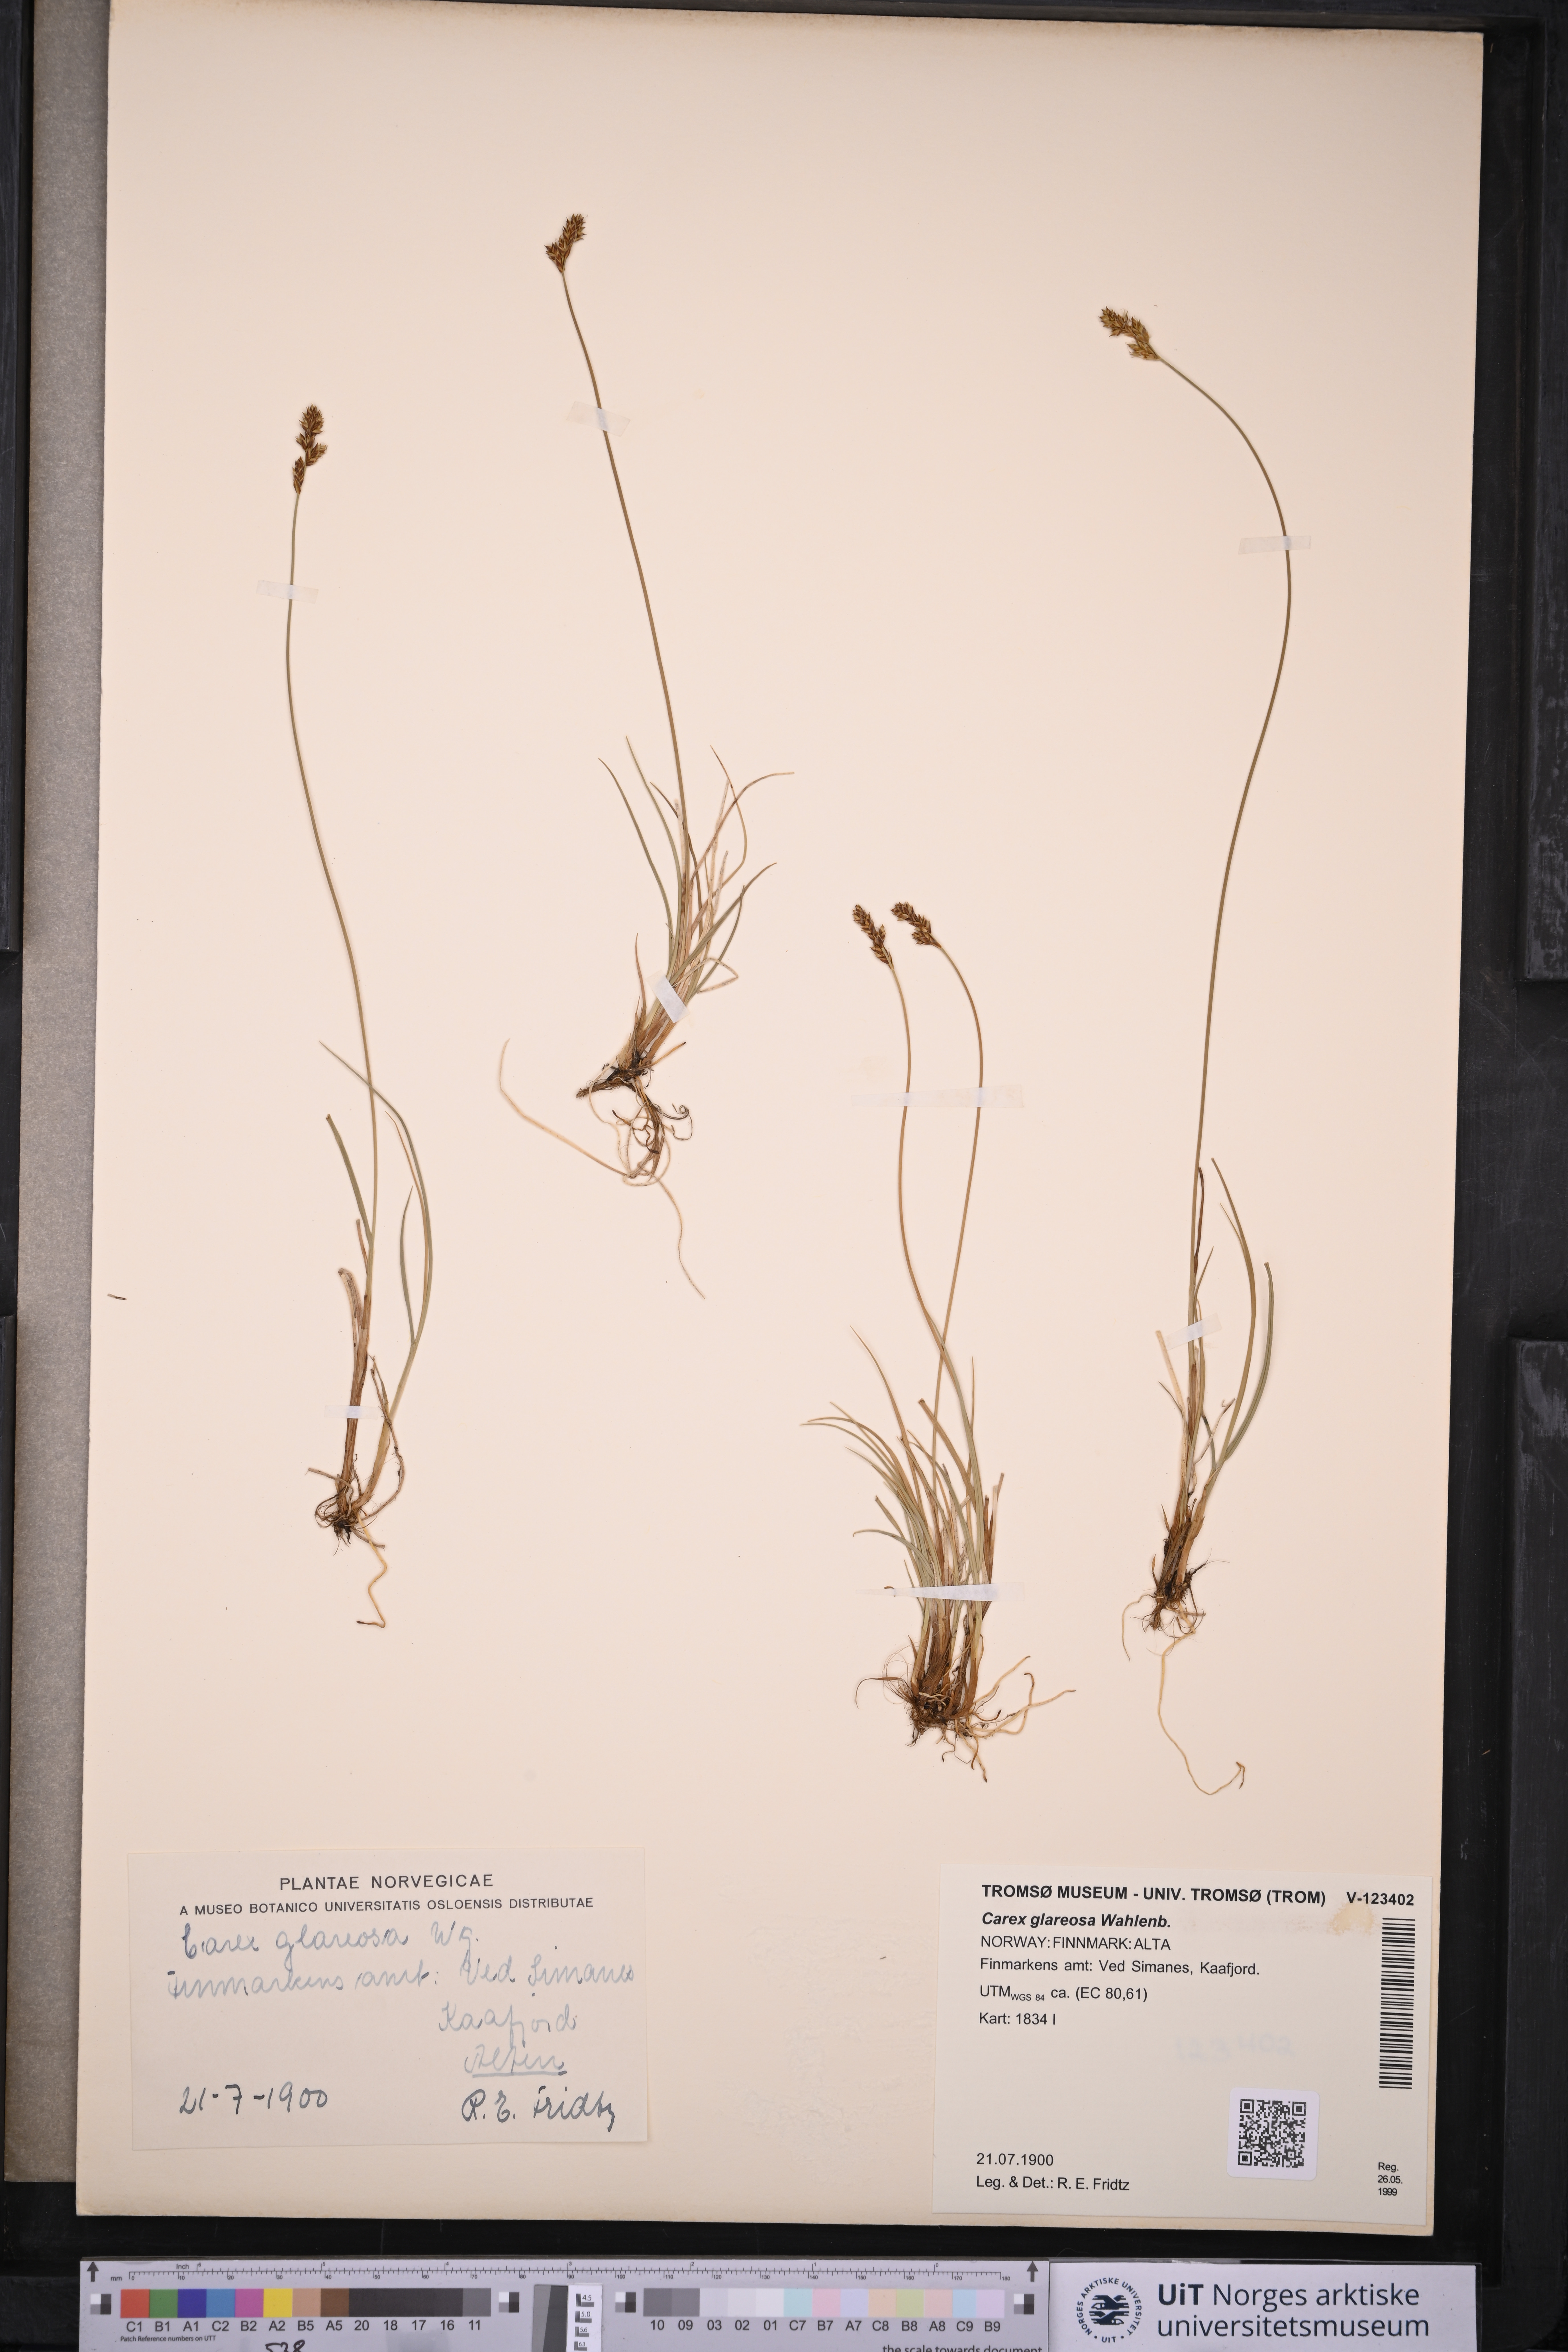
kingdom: Plantae
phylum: Tracheophyta
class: Liliopsida
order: Poales
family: Cyperaceae
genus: Carex
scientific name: Carex glareosa
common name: Clustered sedge
